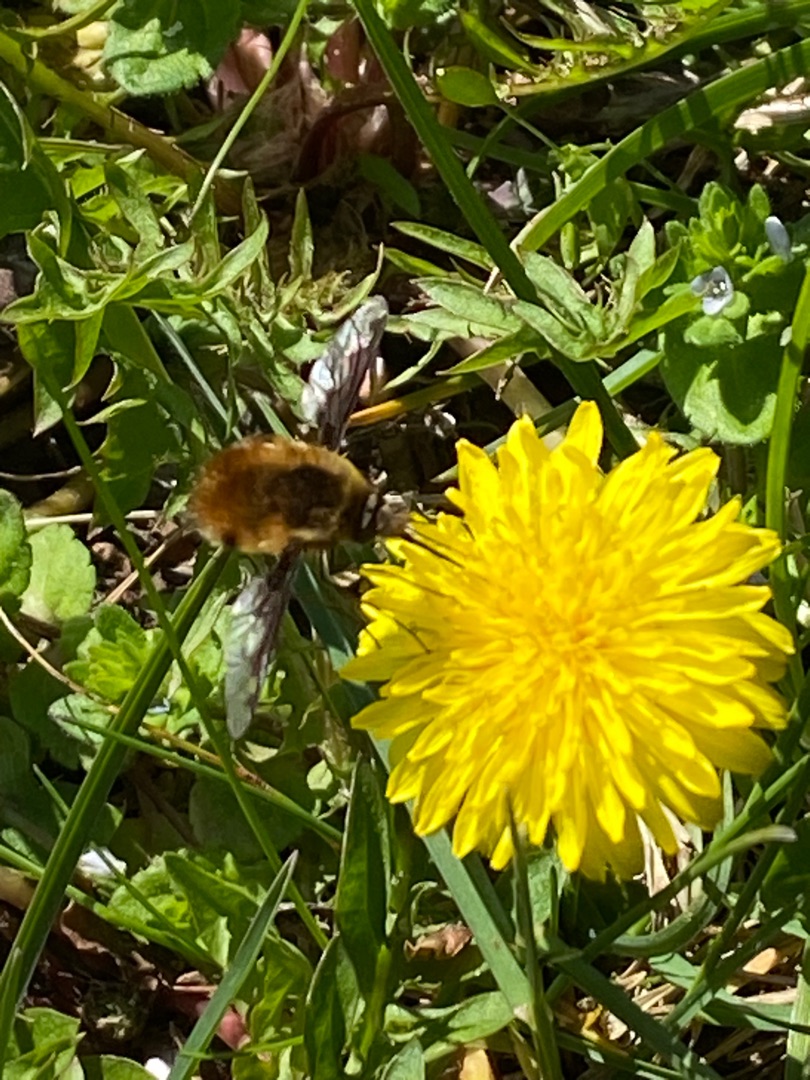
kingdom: Animalia
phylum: Arthropoda
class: Insecta
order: Diptera
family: Bombyliidae
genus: Bombylius
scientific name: Bombylius major
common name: Stor humleflue
